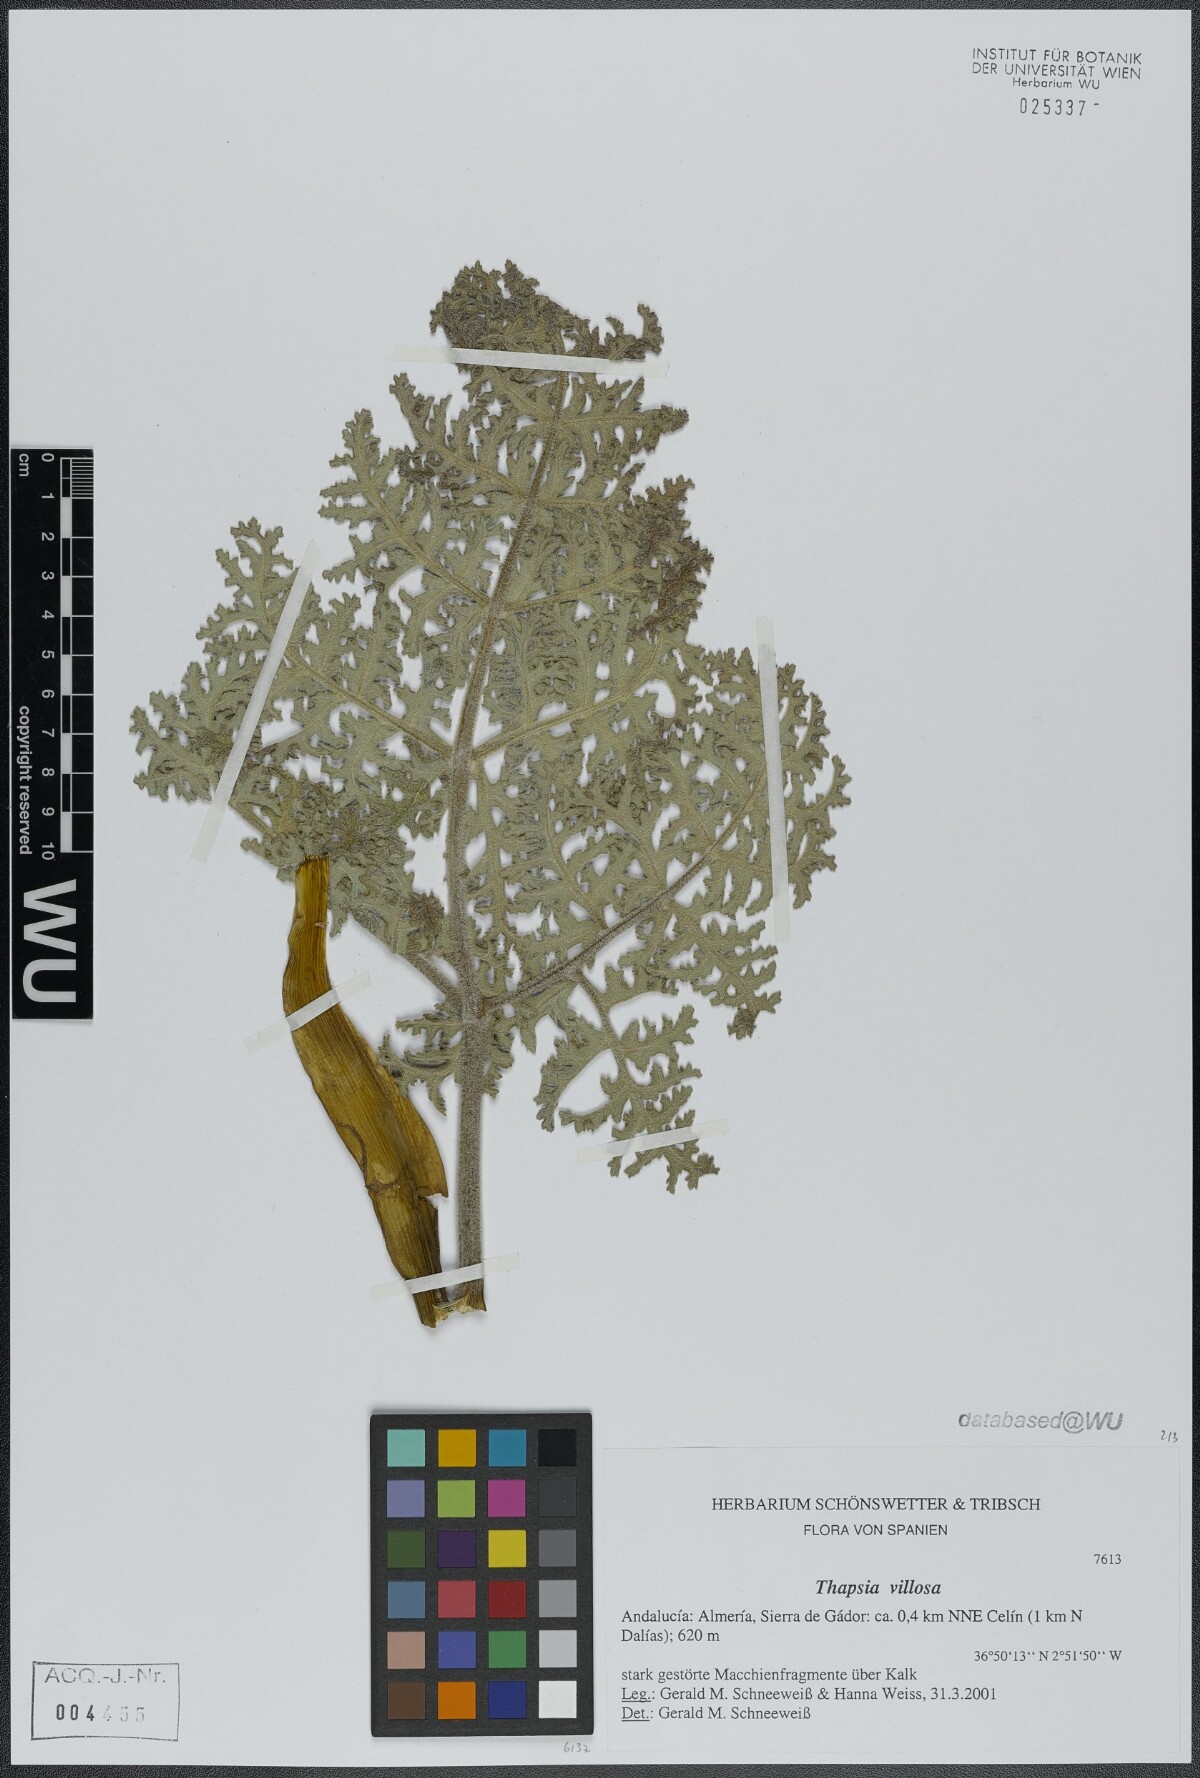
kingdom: Plantae
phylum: Tracheophyta
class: Magnoliopsida
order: Apiales
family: Apiaceae
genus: Thapsia
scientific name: Thapsia villosa
